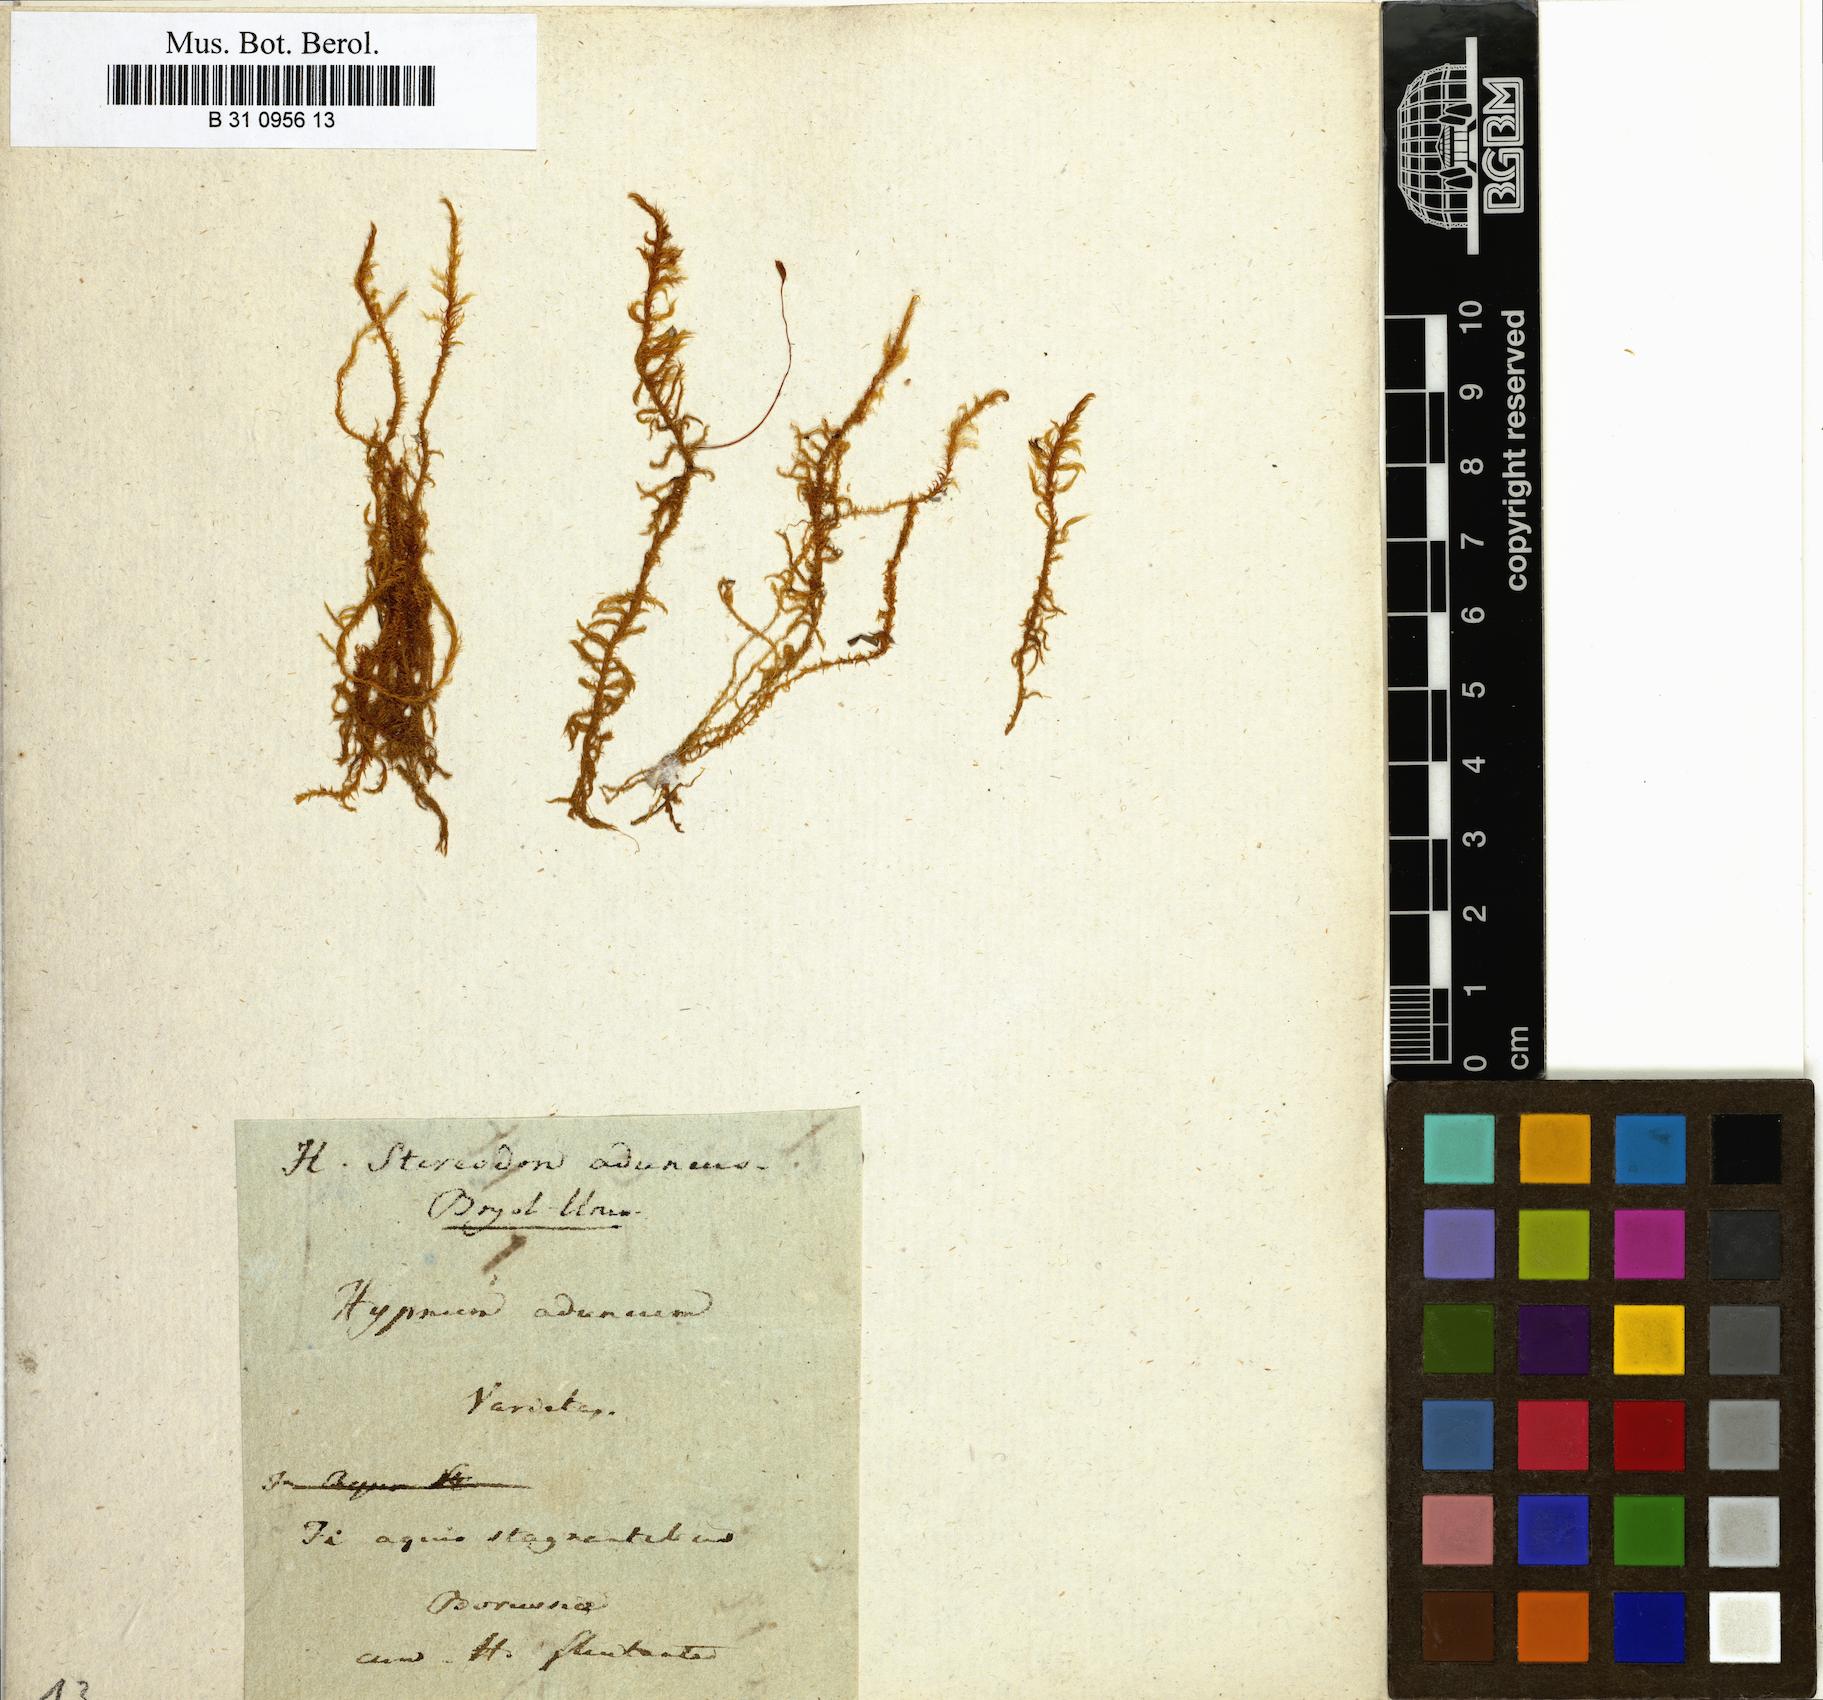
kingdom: Plantae
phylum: Bryophyta
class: Bryopsida
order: Hypnales
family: Amblystegiaceae
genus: Drepanocladus
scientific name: Drepanocladus aduncus
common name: Knieff's hook moss
